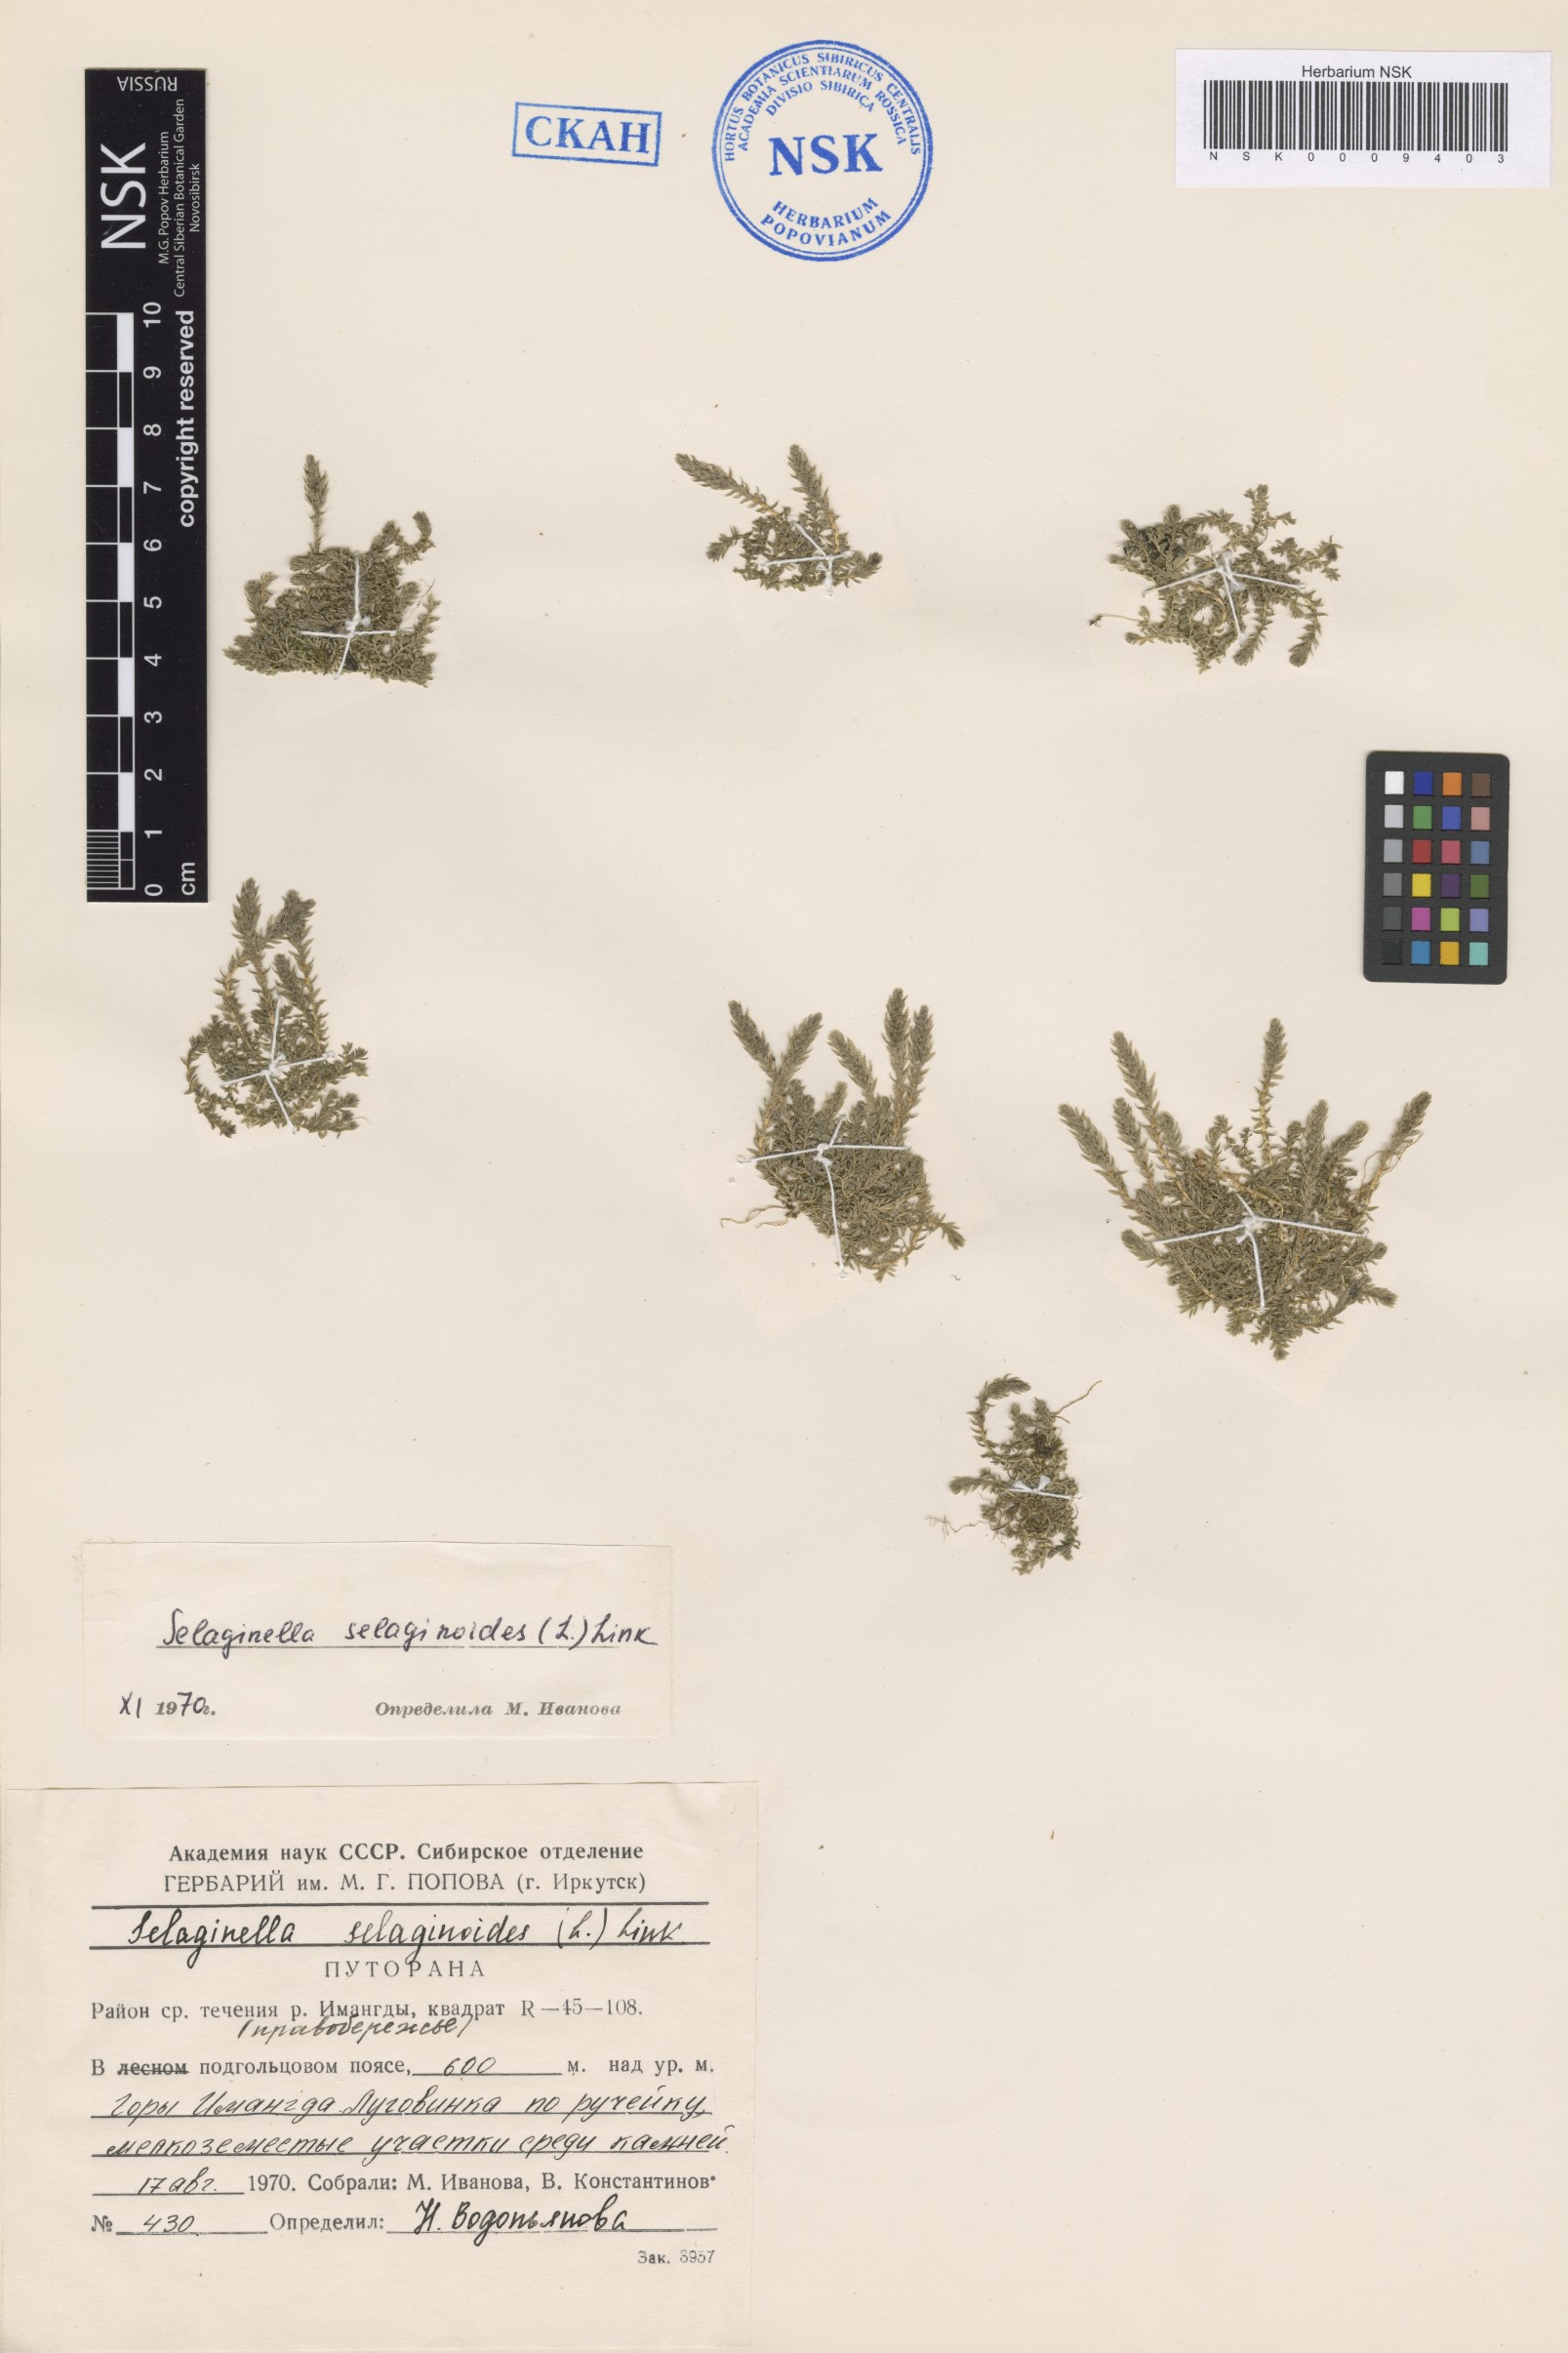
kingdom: Plantae
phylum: Tracheophyta
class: Lycopodiopsida
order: Selaginellales
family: Selaginellaceae
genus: Selaginella
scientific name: Selaginella selaginoides
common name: Prickly mountain-moss
